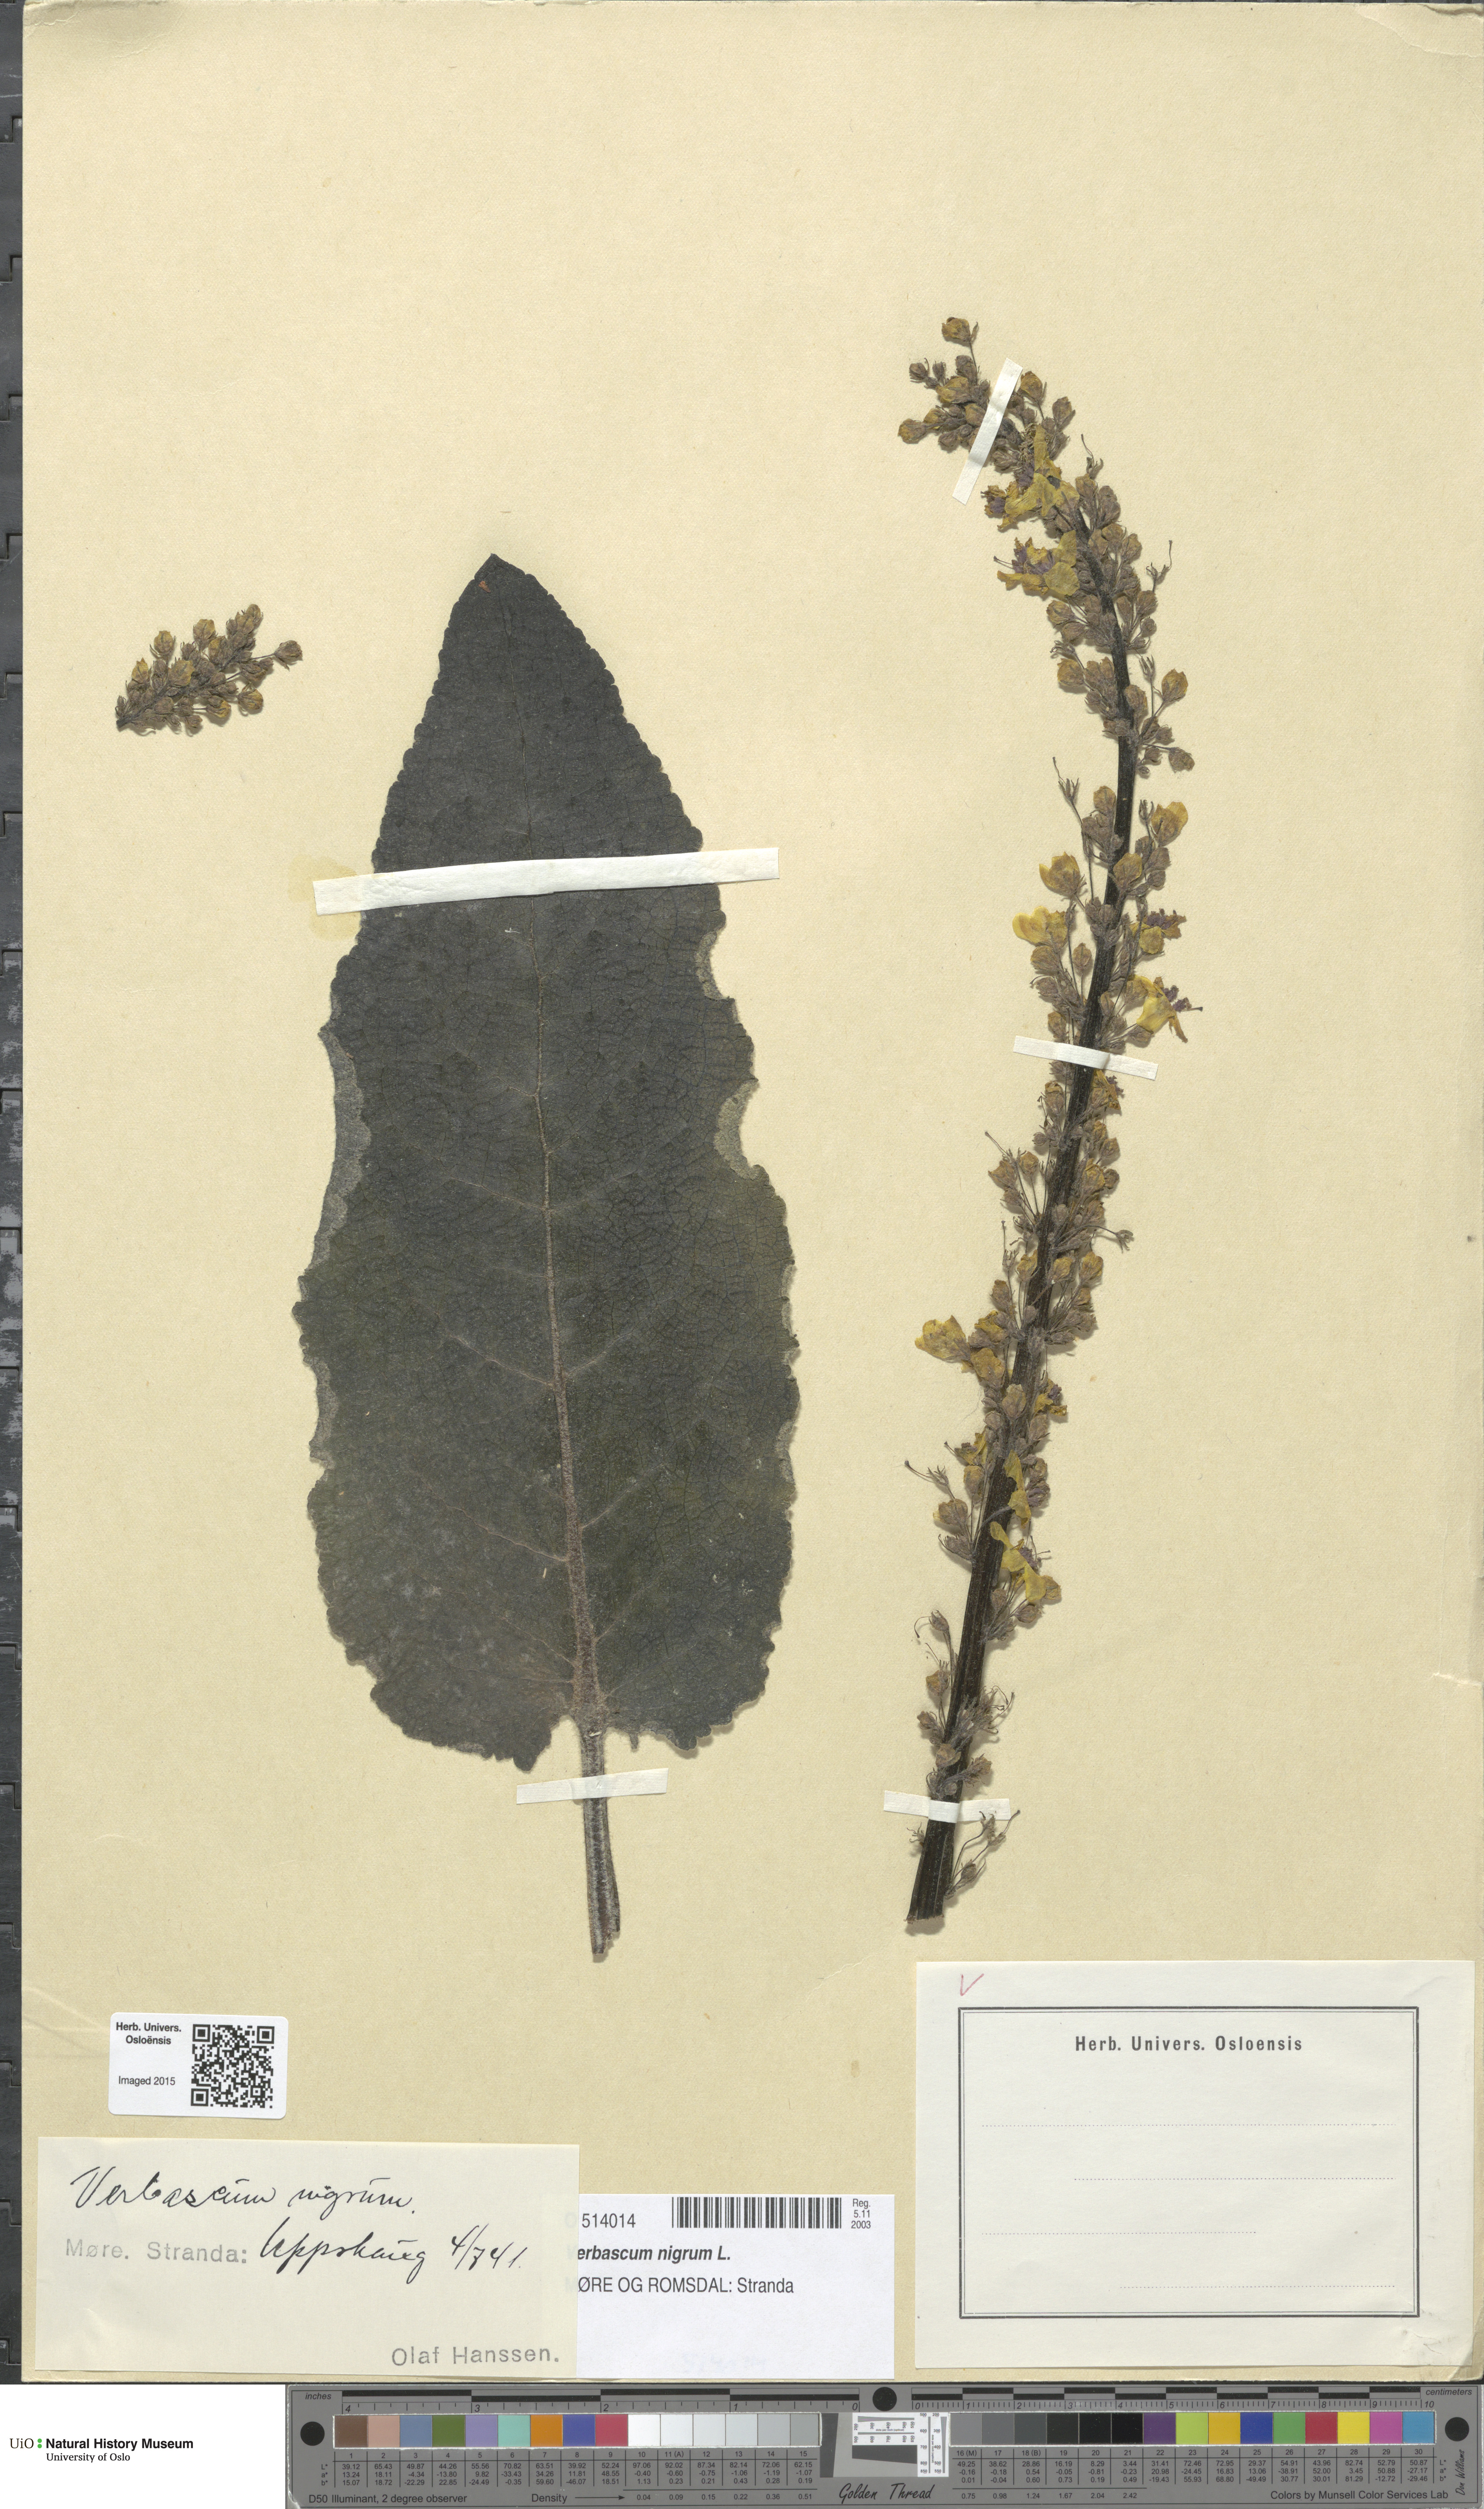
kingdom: Plantae
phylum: Tracheophyta
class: Magnoliopsida
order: Lamiales
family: Scrophulariaceae
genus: Verbascum
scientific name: Verbascum nigrum
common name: Dark mullein
